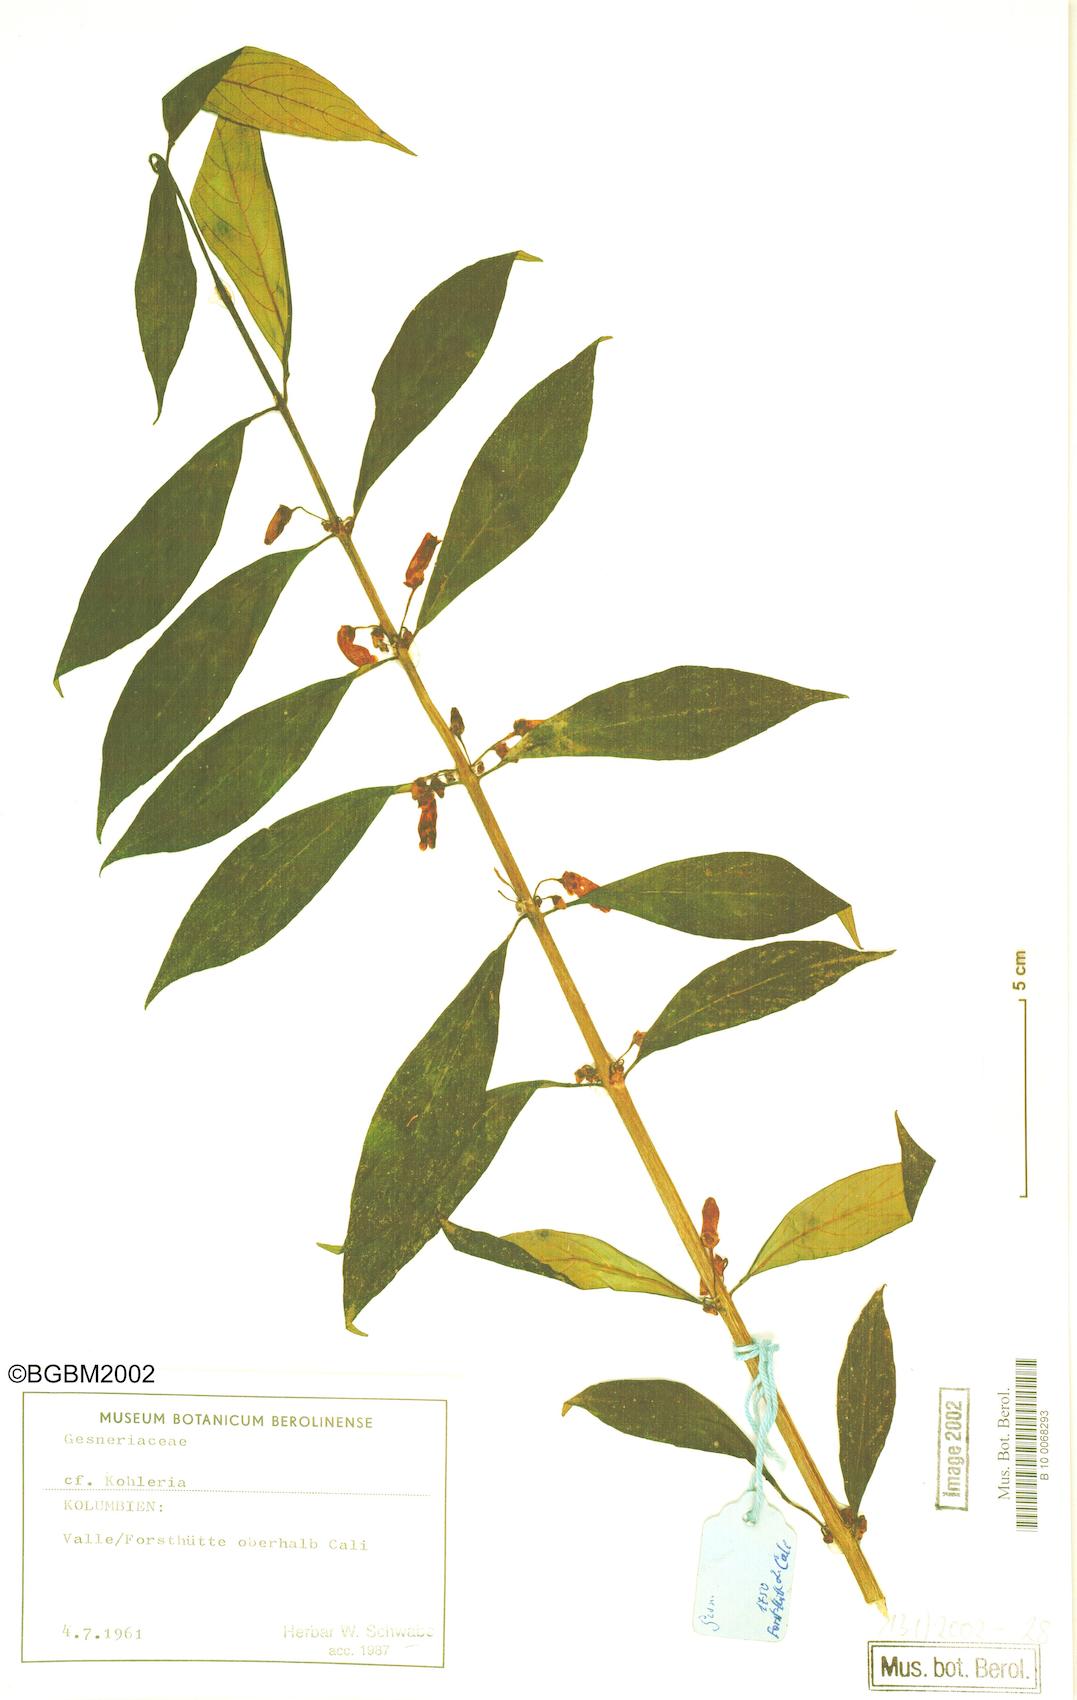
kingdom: Plantae
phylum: Tracheophyta
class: Magnoliopsida
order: Lamiales
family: Gesneriaceae
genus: Kohleria
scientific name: Kohleria
